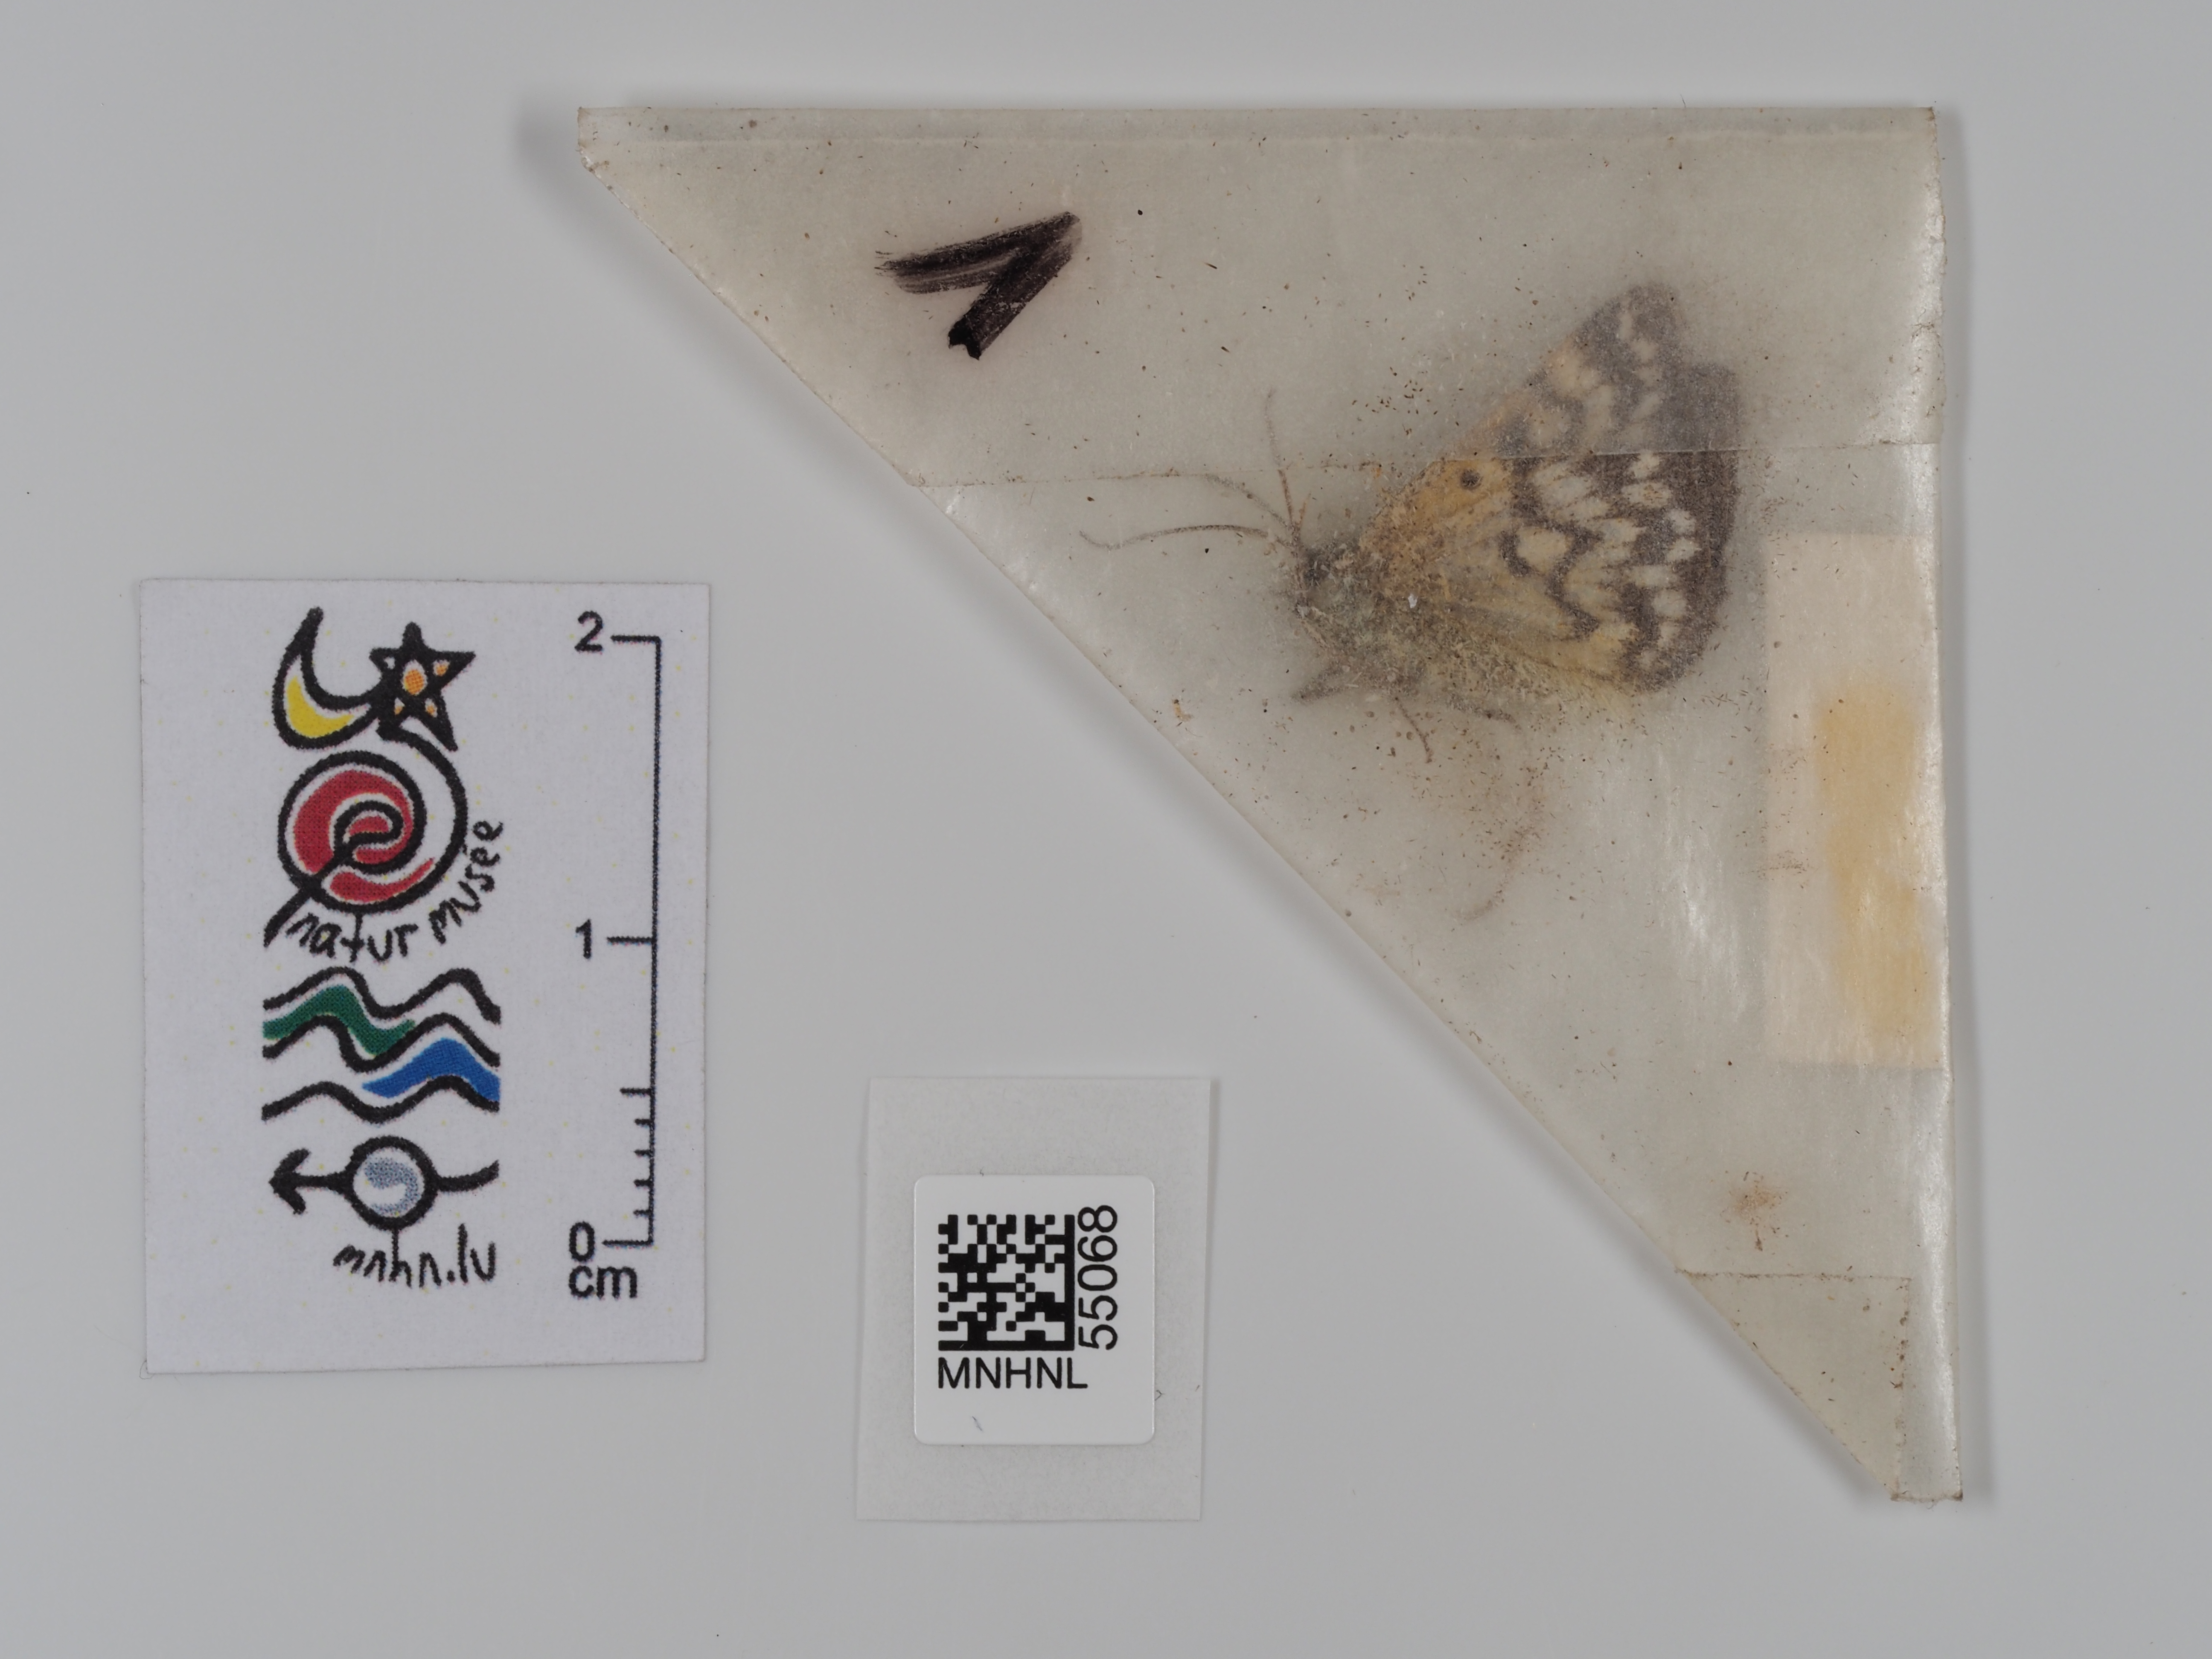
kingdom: Animalia
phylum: Arthropoda
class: Insecta
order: Lepidoptera
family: Erebidae
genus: Euclidia
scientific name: Euclidia mi
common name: Mother shipton
